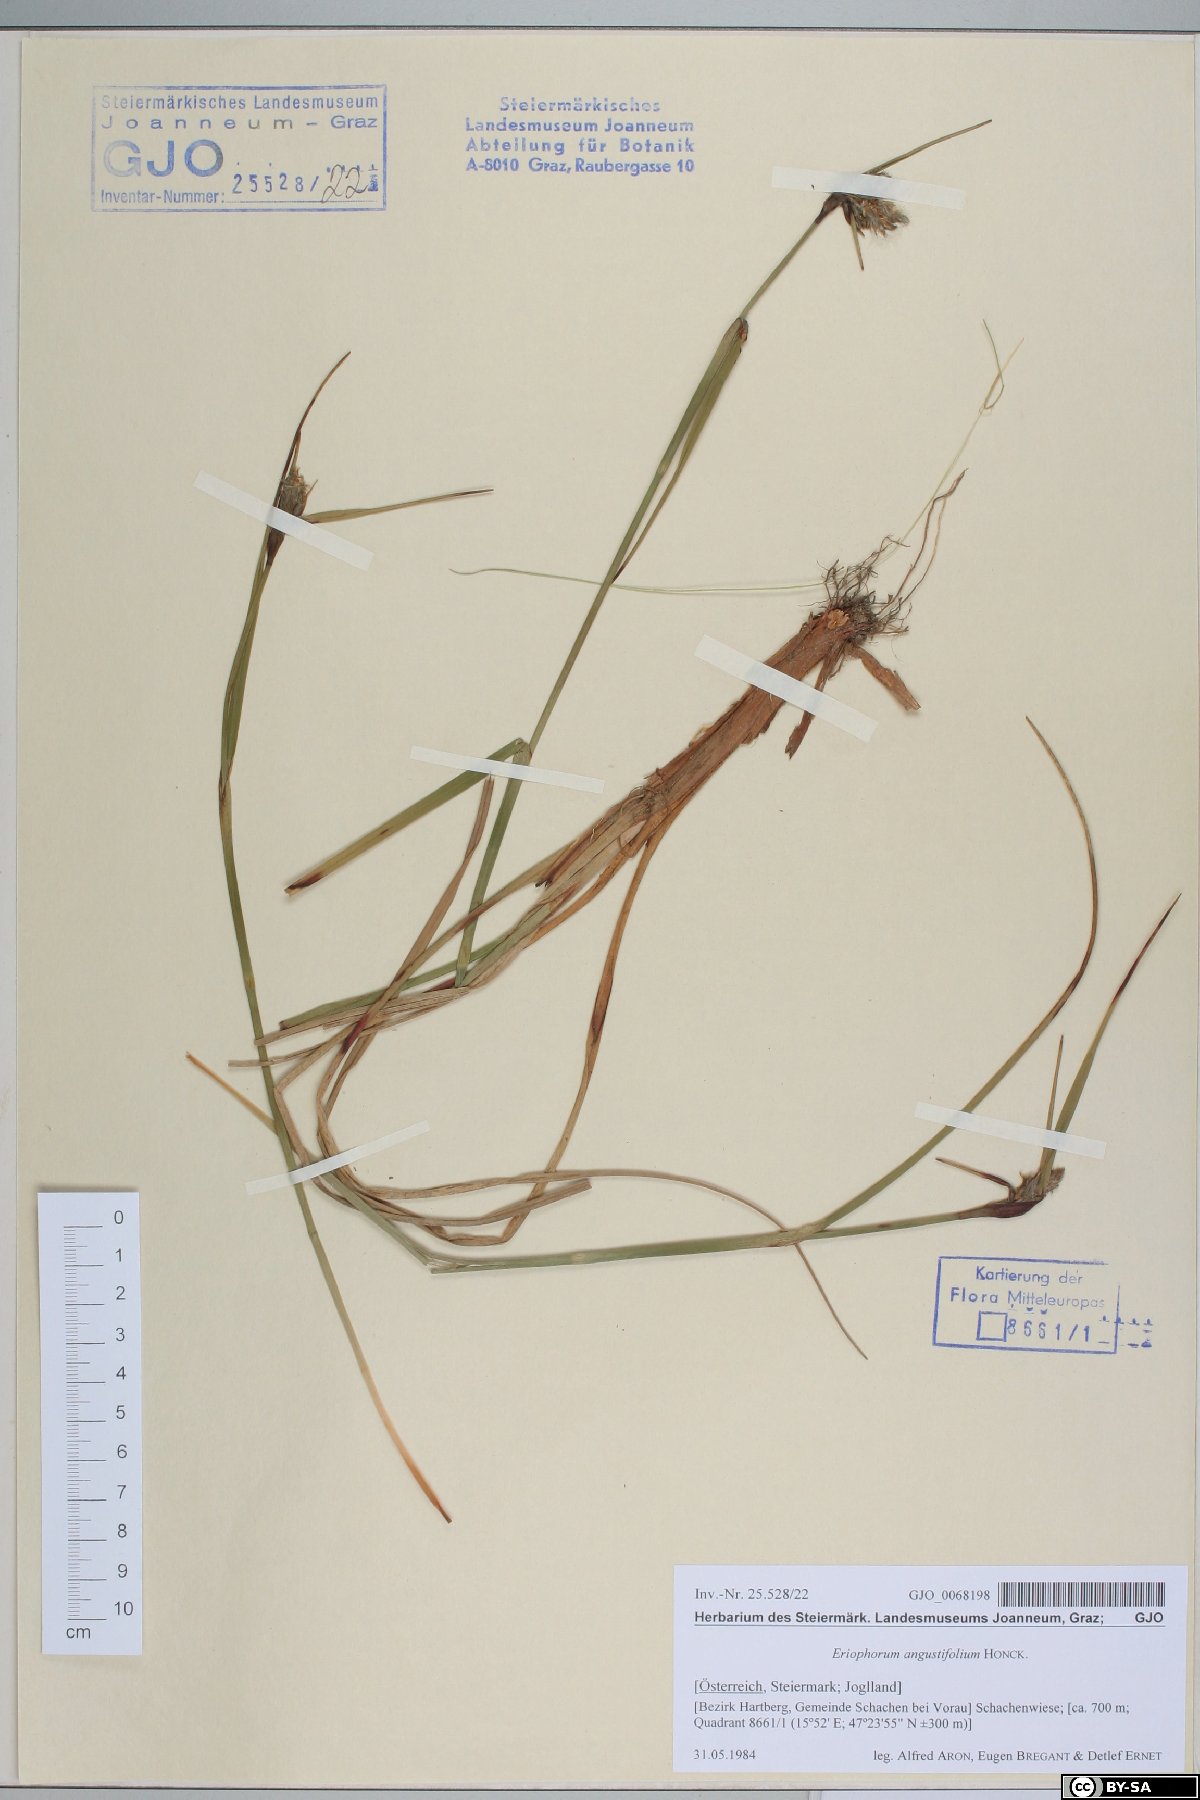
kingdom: Plantae
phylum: Tracheophyta
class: Liliopsida
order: Poales
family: Cyperaceae
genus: Eriophorum
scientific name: Eriophorum angustifolium
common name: Common cottongrass
